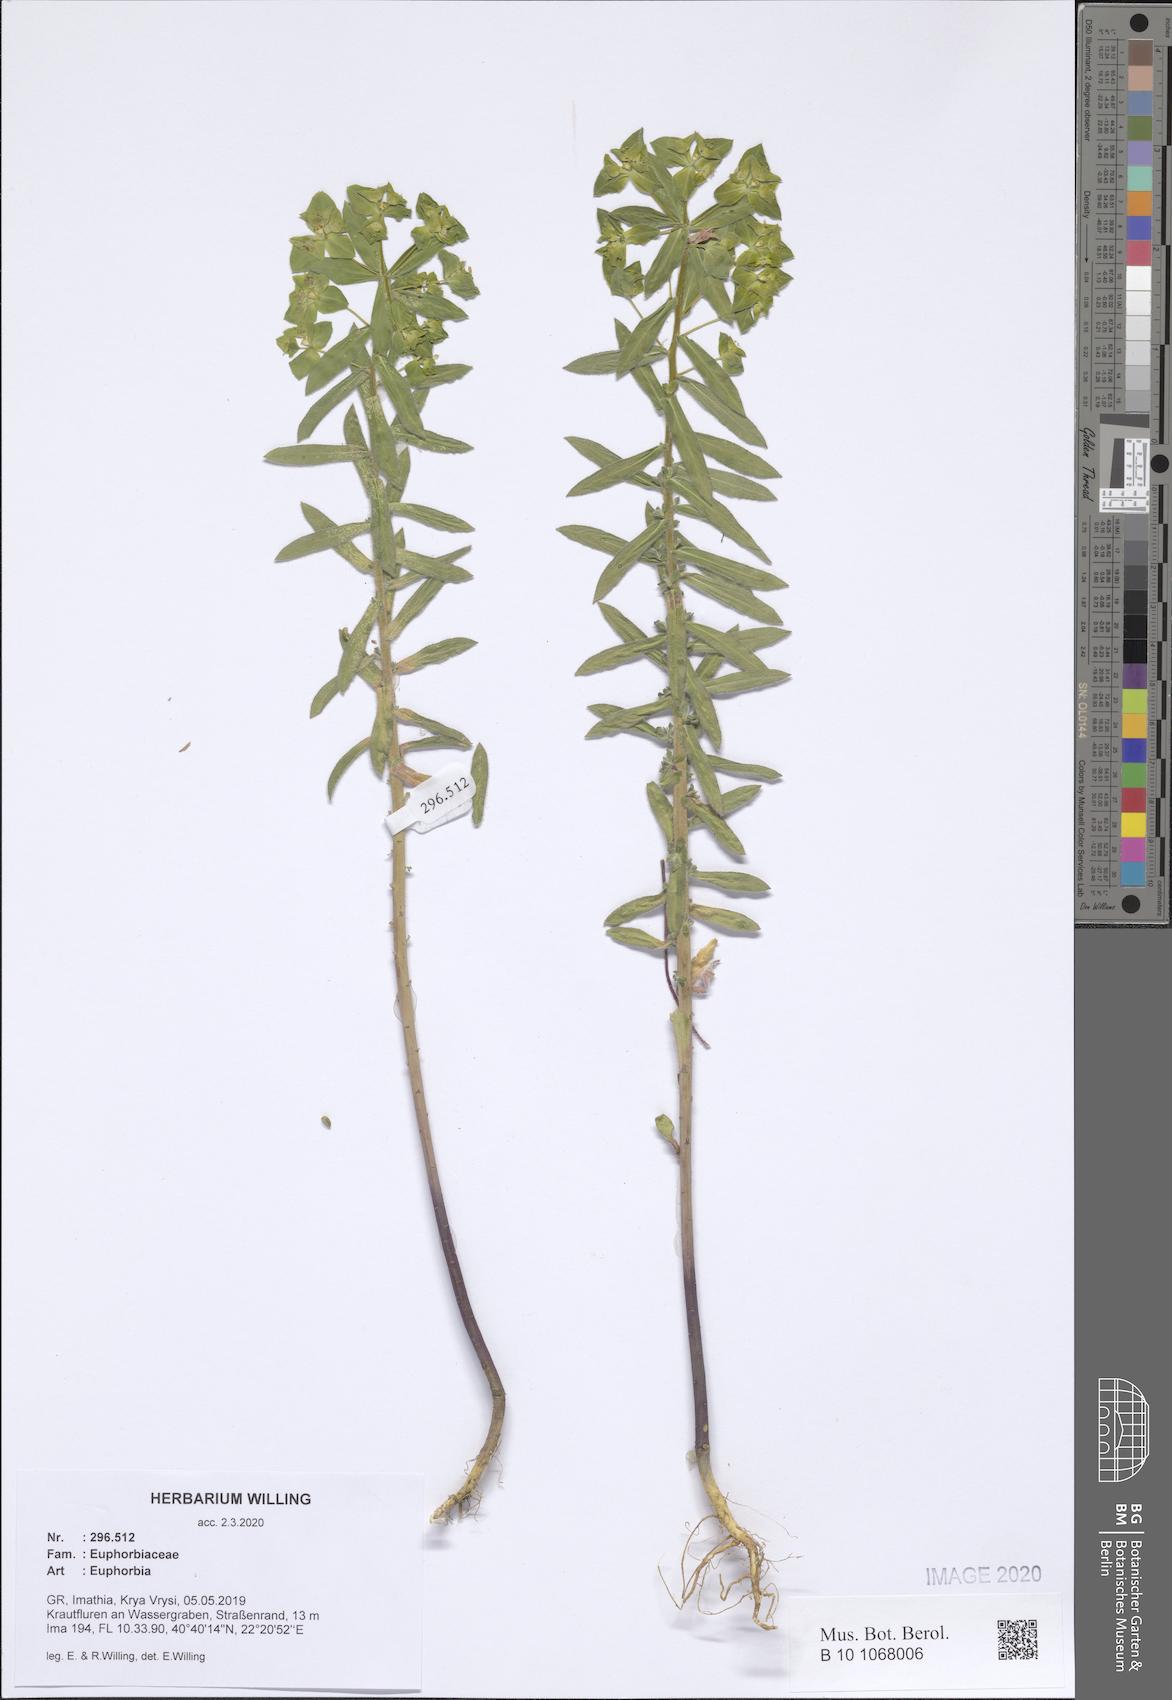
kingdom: Plantae
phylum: Tracheophyta
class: Magnoliopsida
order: Malpighiales
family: Euphorbiaceae
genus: Euphorbia
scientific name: Euphorbia
